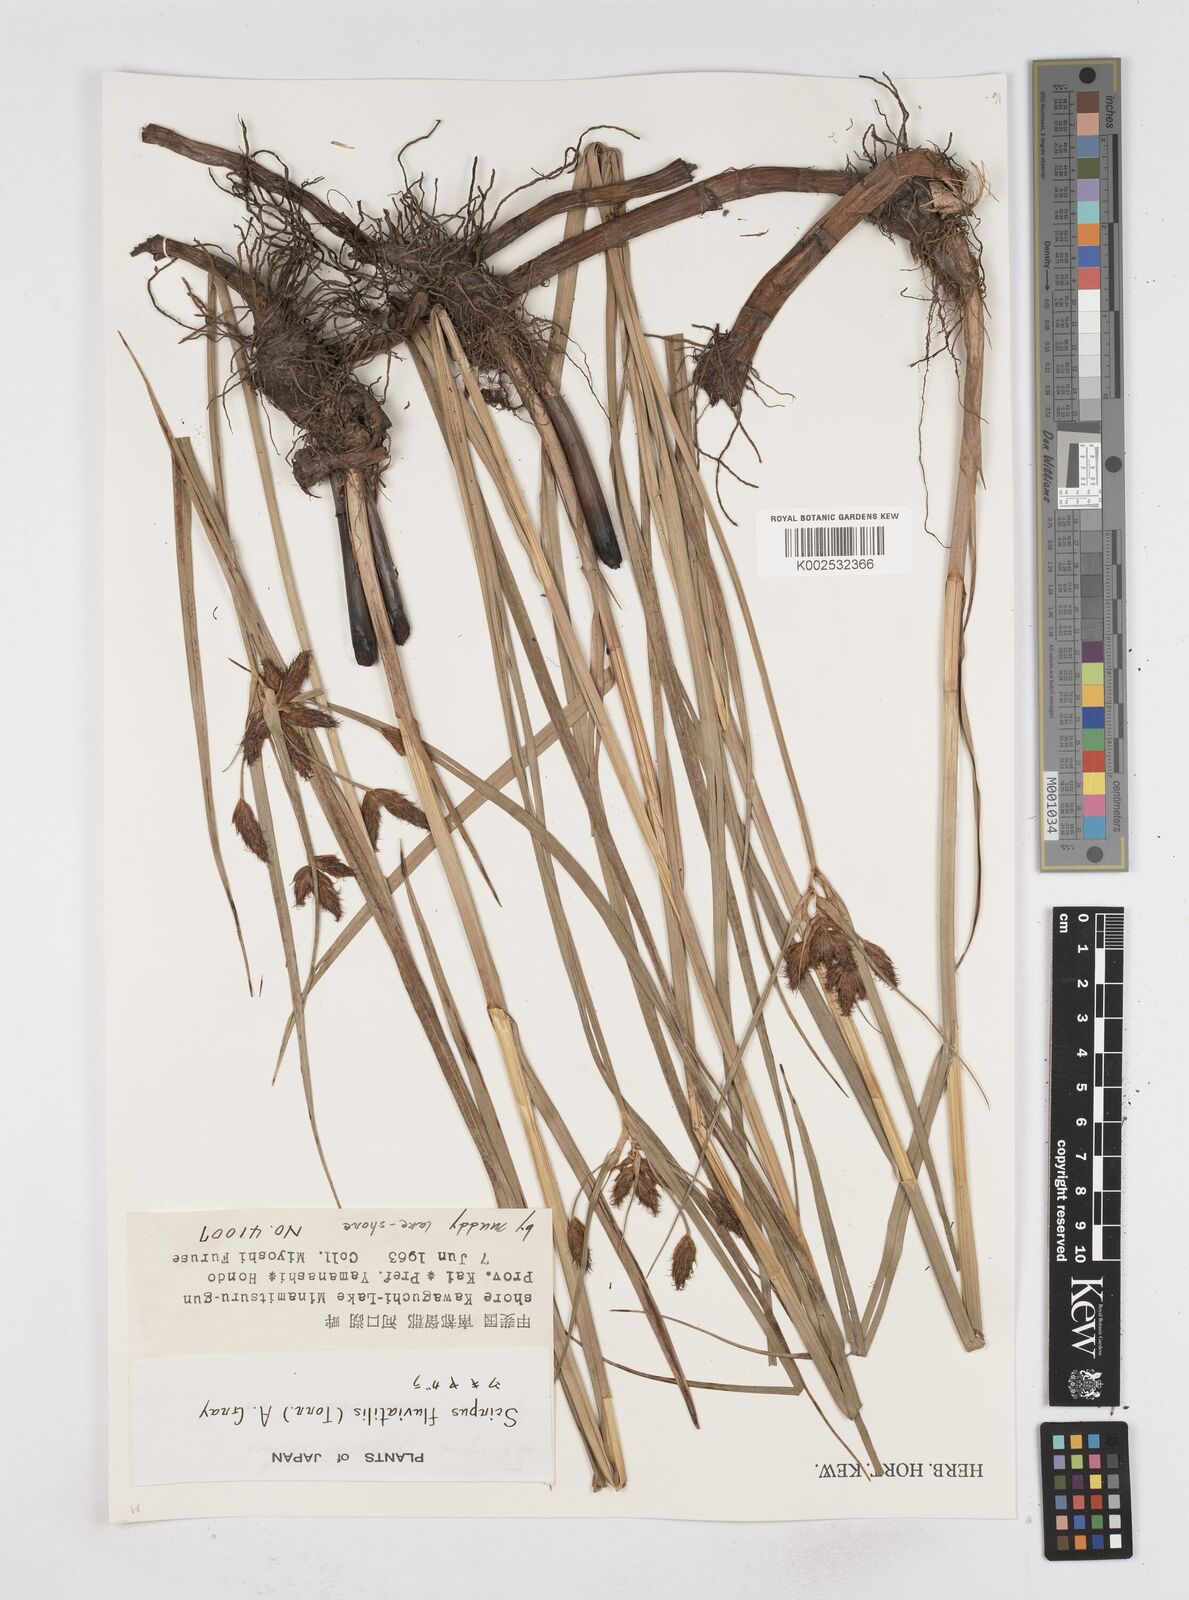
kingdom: Plantae
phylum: Tracheophyta
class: Liliopsida
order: Poales
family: Cyperaceae
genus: Bolboschoenus
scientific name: Bolboschoenus maritimus
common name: Sea club-rush
